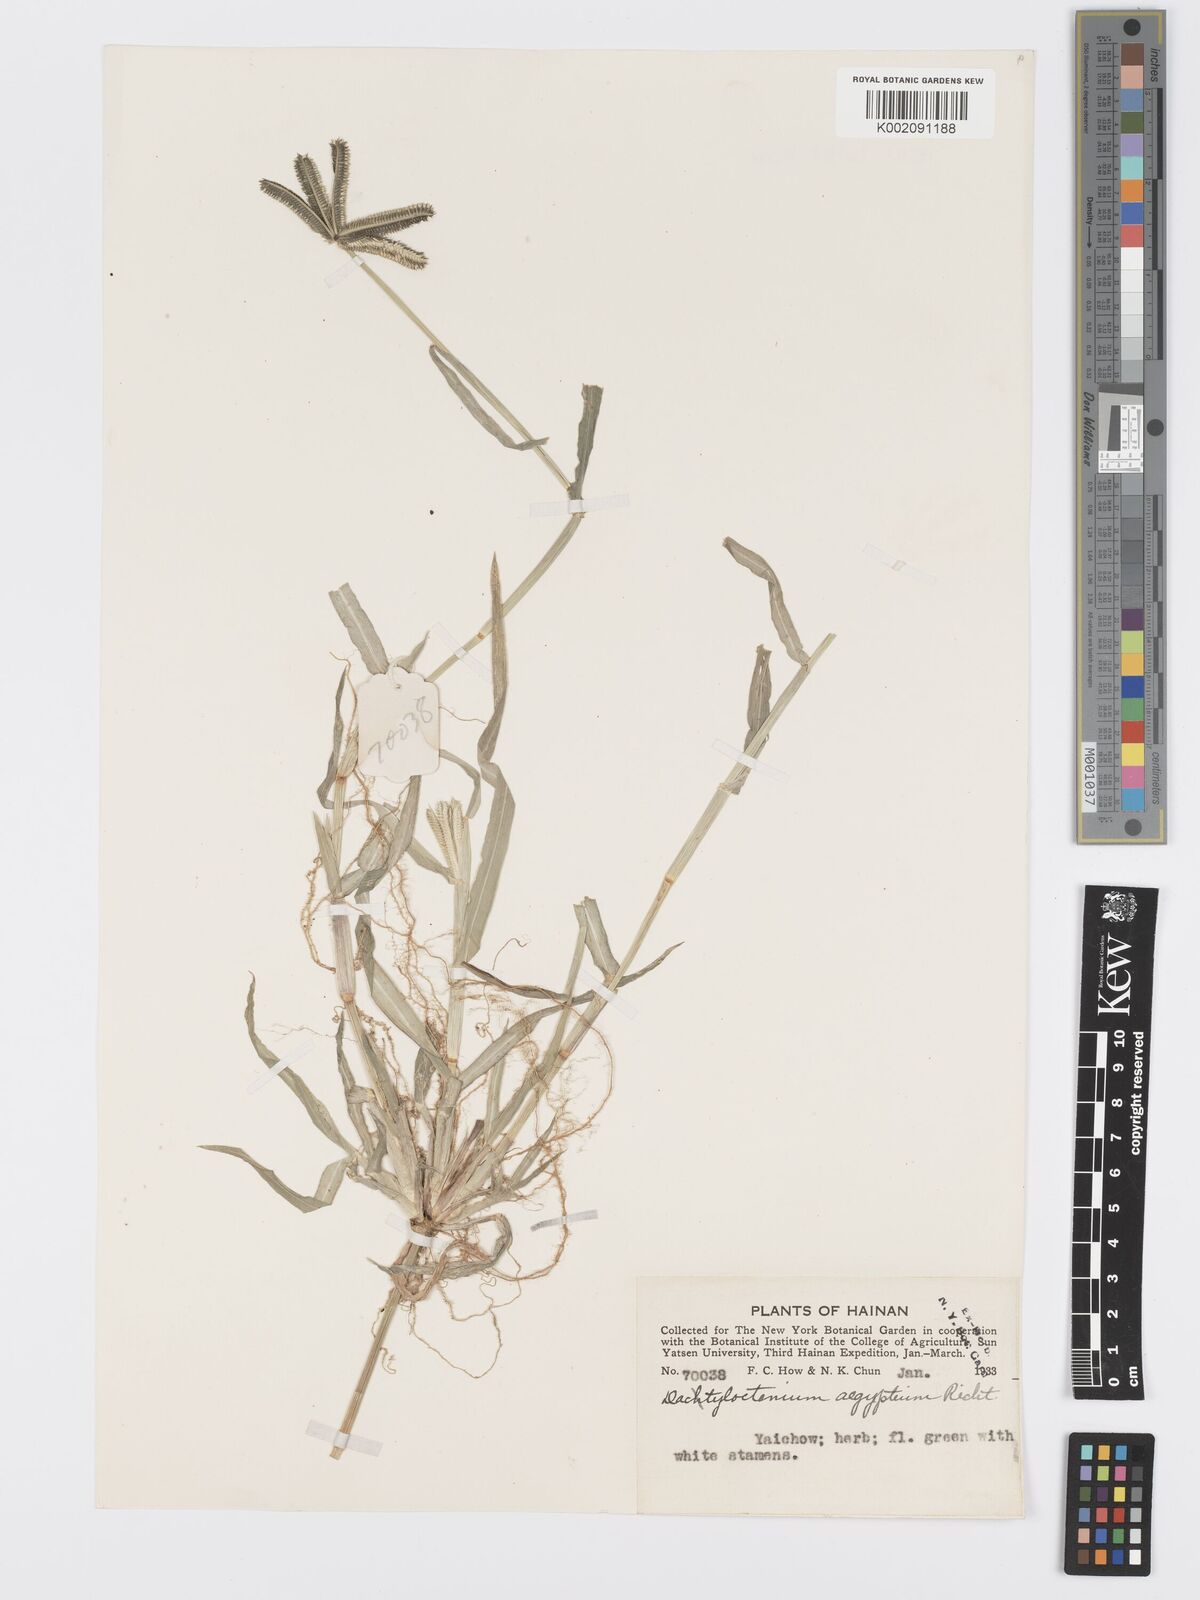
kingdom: Plantae
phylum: Tracheophyta
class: Liliopsida
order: Poales
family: Poaceae
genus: Dactyloctenium
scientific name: Dactyloctenium aegyptium
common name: Egyptian grass
